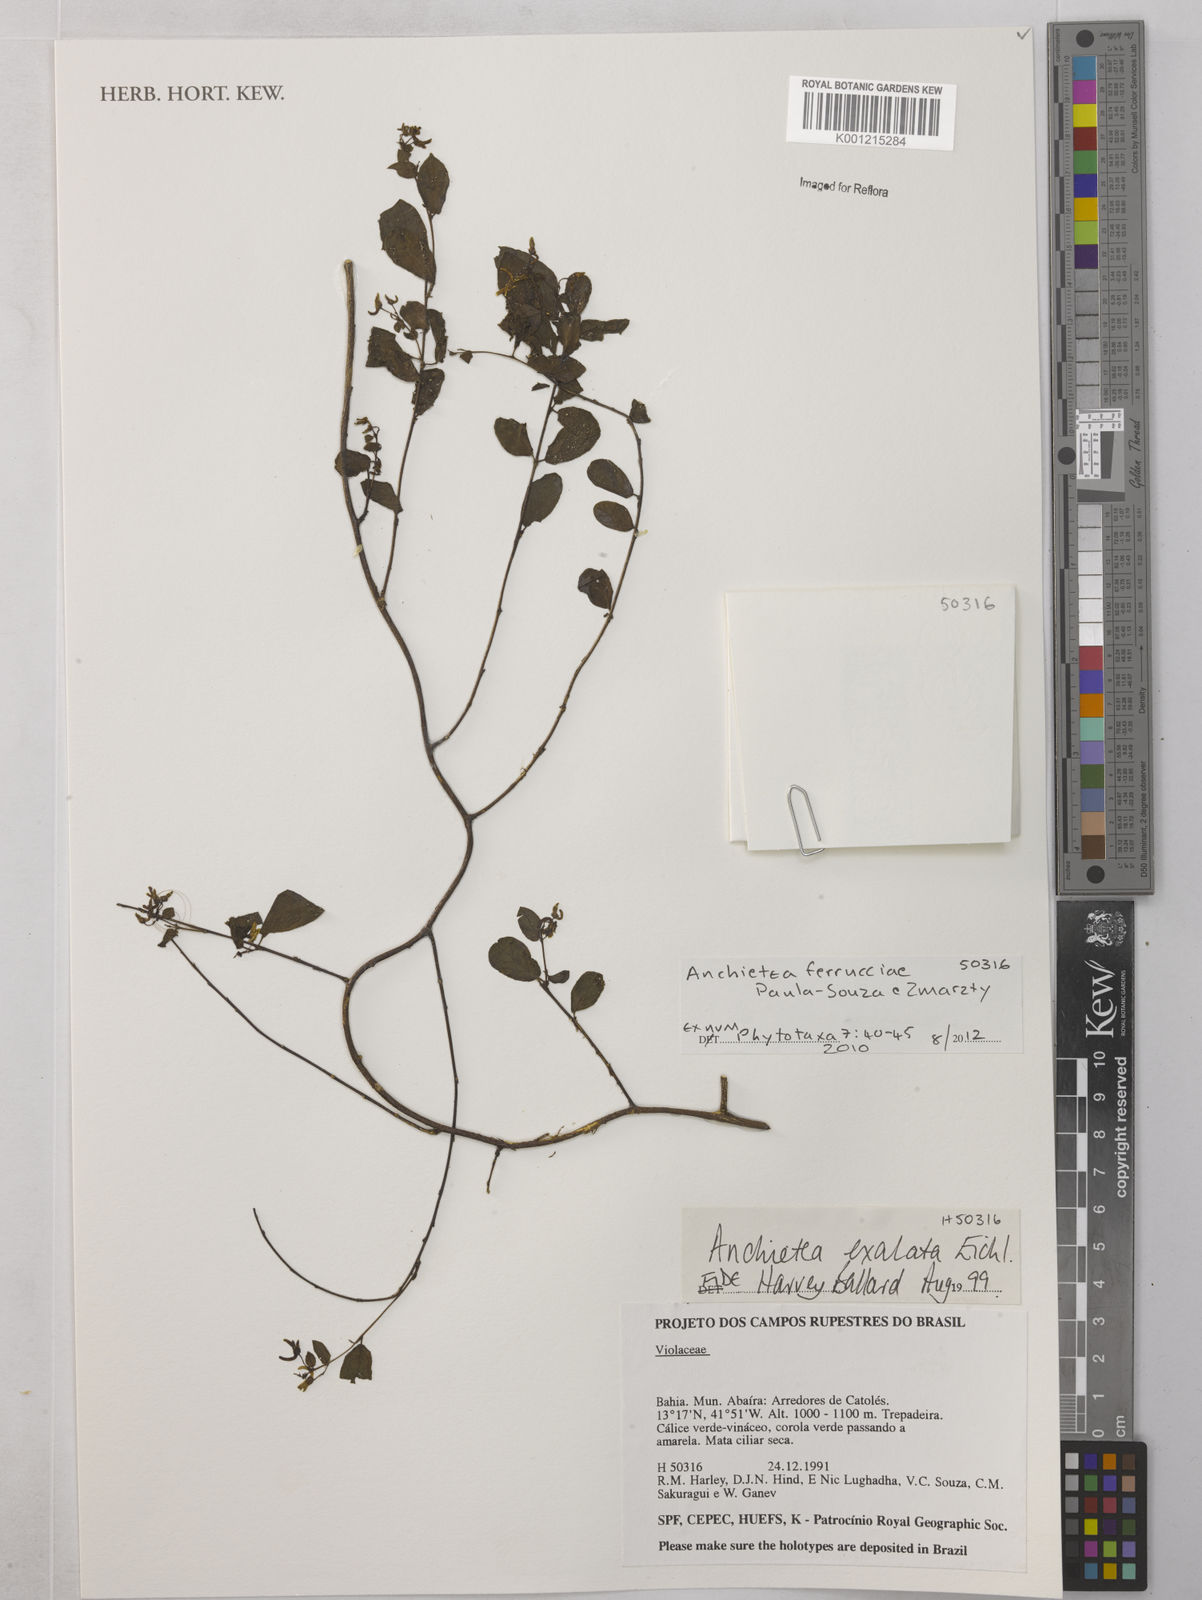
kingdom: Plantae
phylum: Tracheophyta
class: Magnoliopsida
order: Malpighiales
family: Violaceae
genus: Anchietea
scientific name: Anchietea ferrucciae
